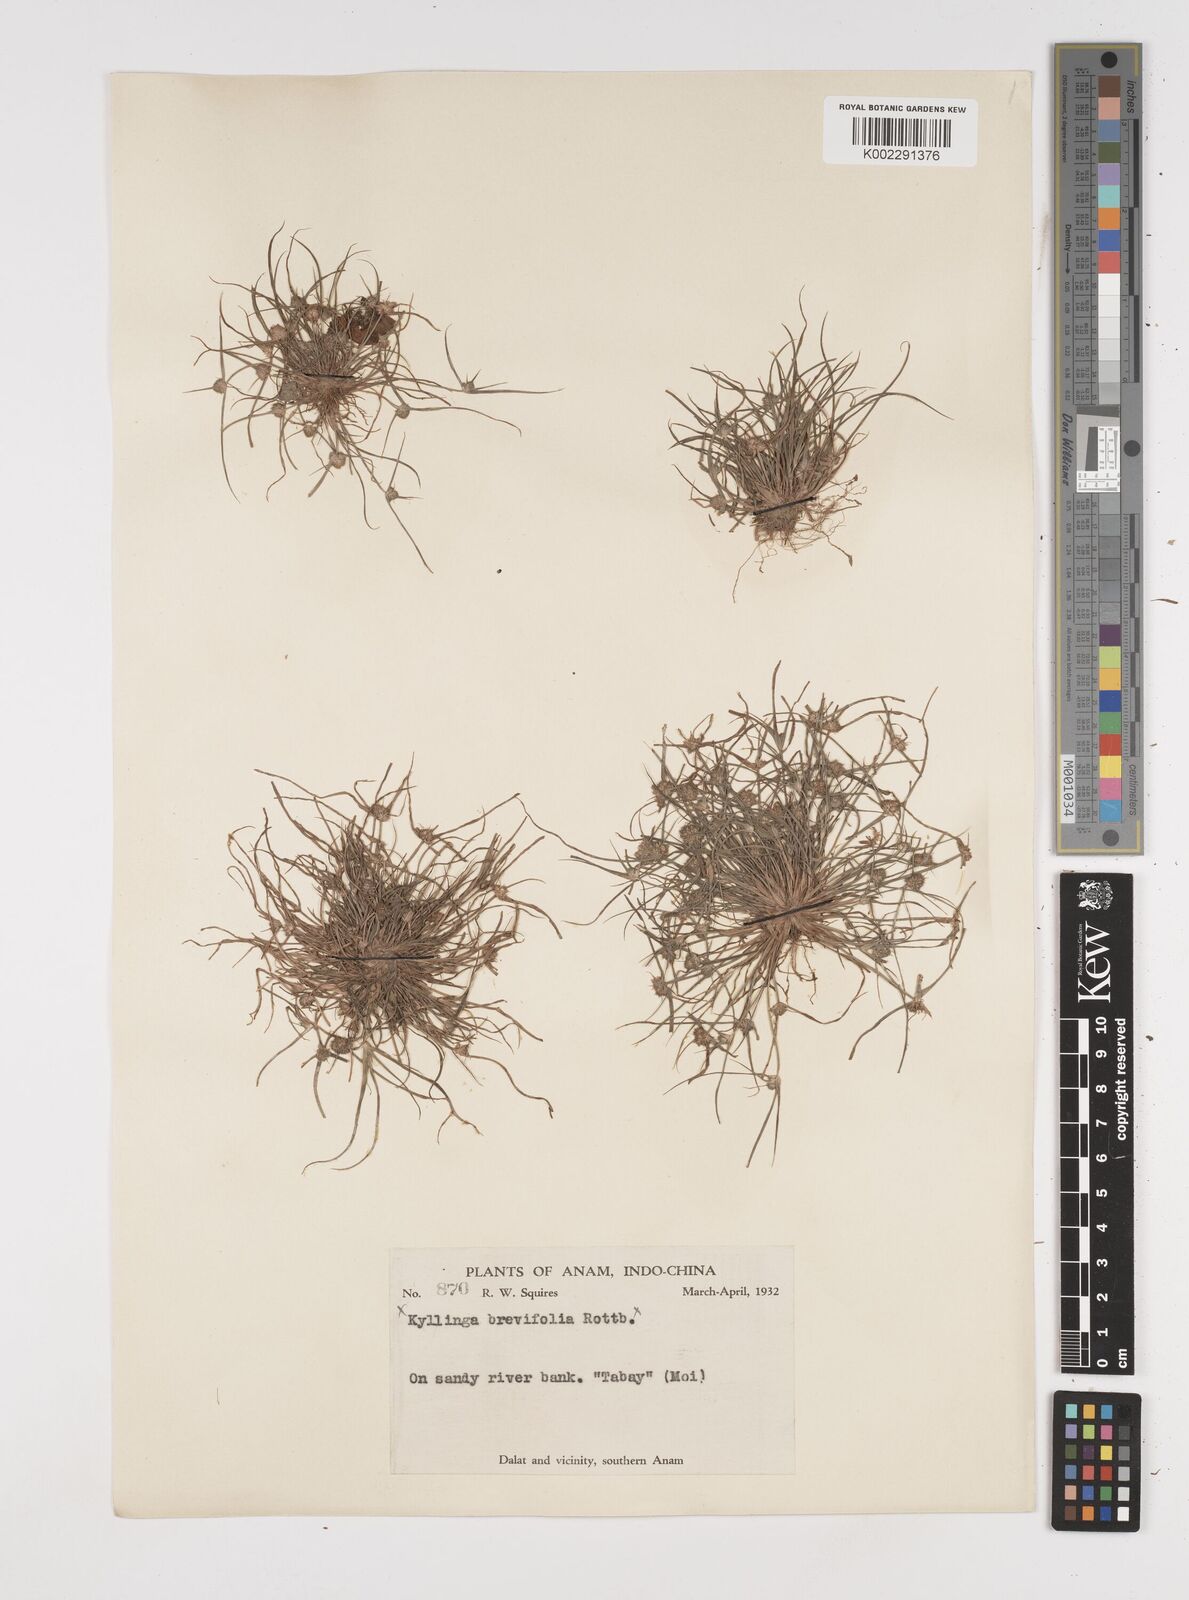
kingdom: Plantae
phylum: Tracheophyta
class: Liliopsida
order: Poales
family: Cyperaceae
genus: Cyperus
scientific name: Cyperus michelianus
